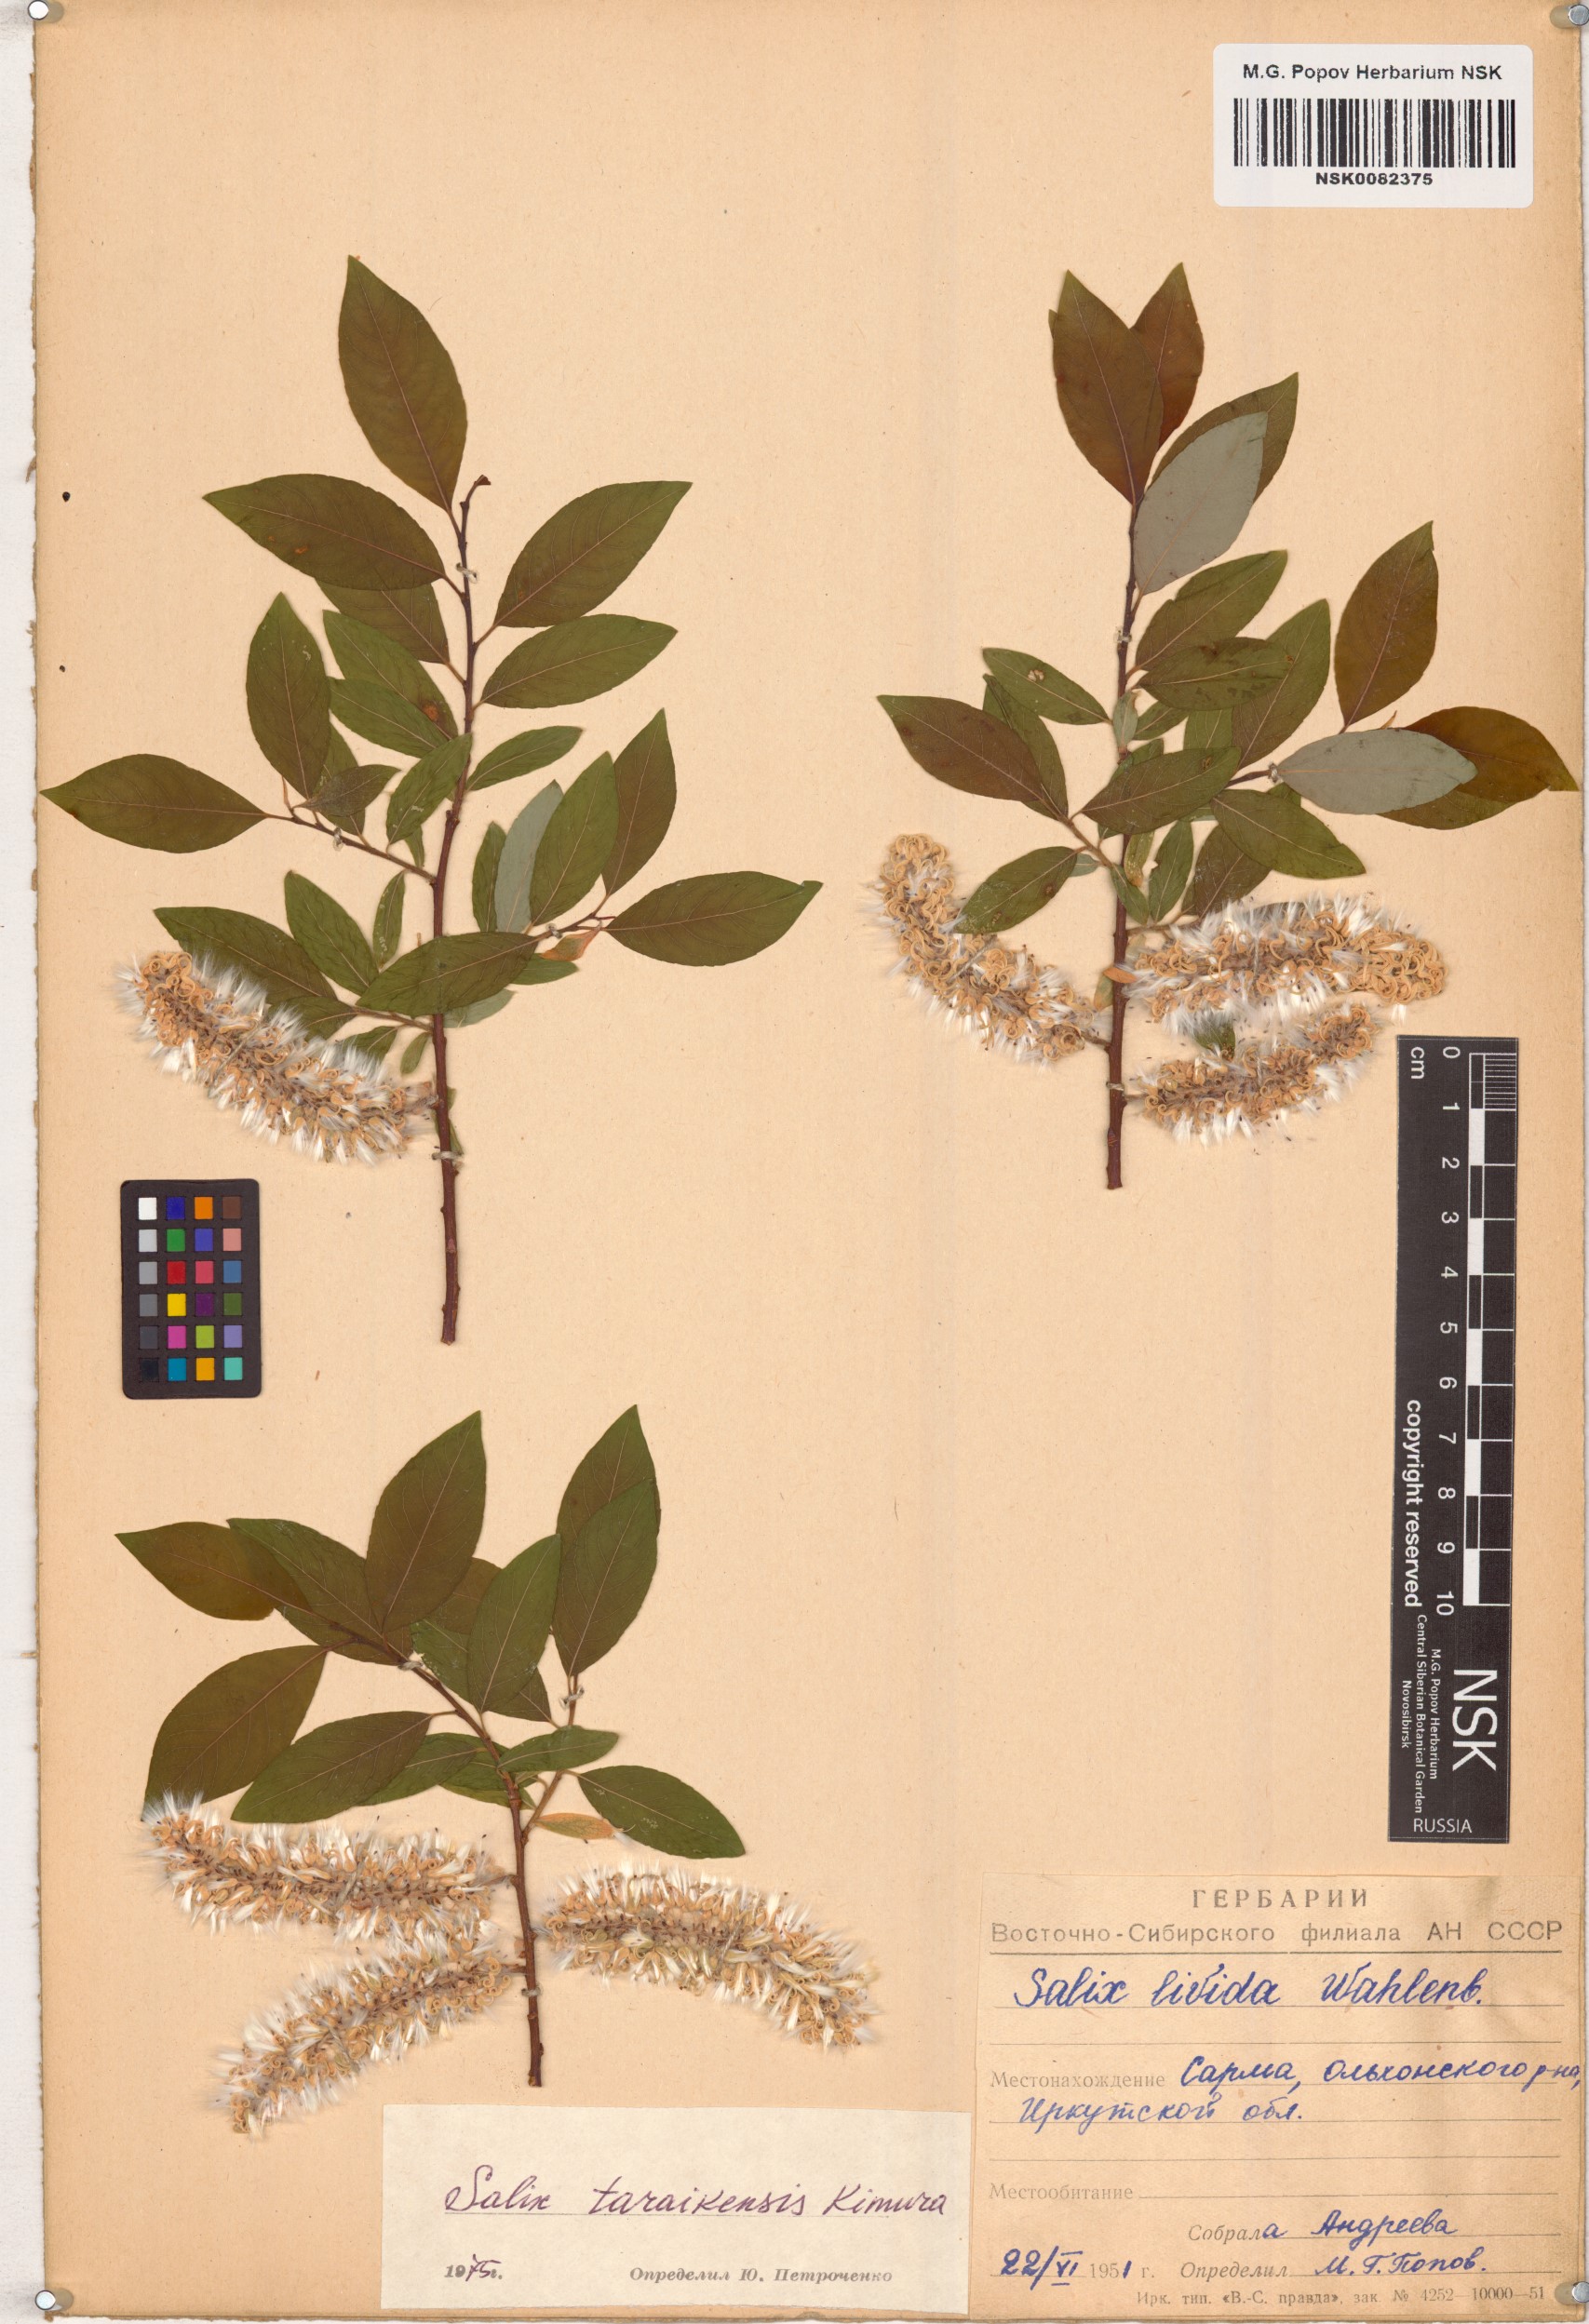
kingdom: Plantae
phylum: Tracheophyta
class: Magnoliopsida
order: Malpighiales
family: Salicaceae
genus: Salix
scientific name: Salix taraikensis
